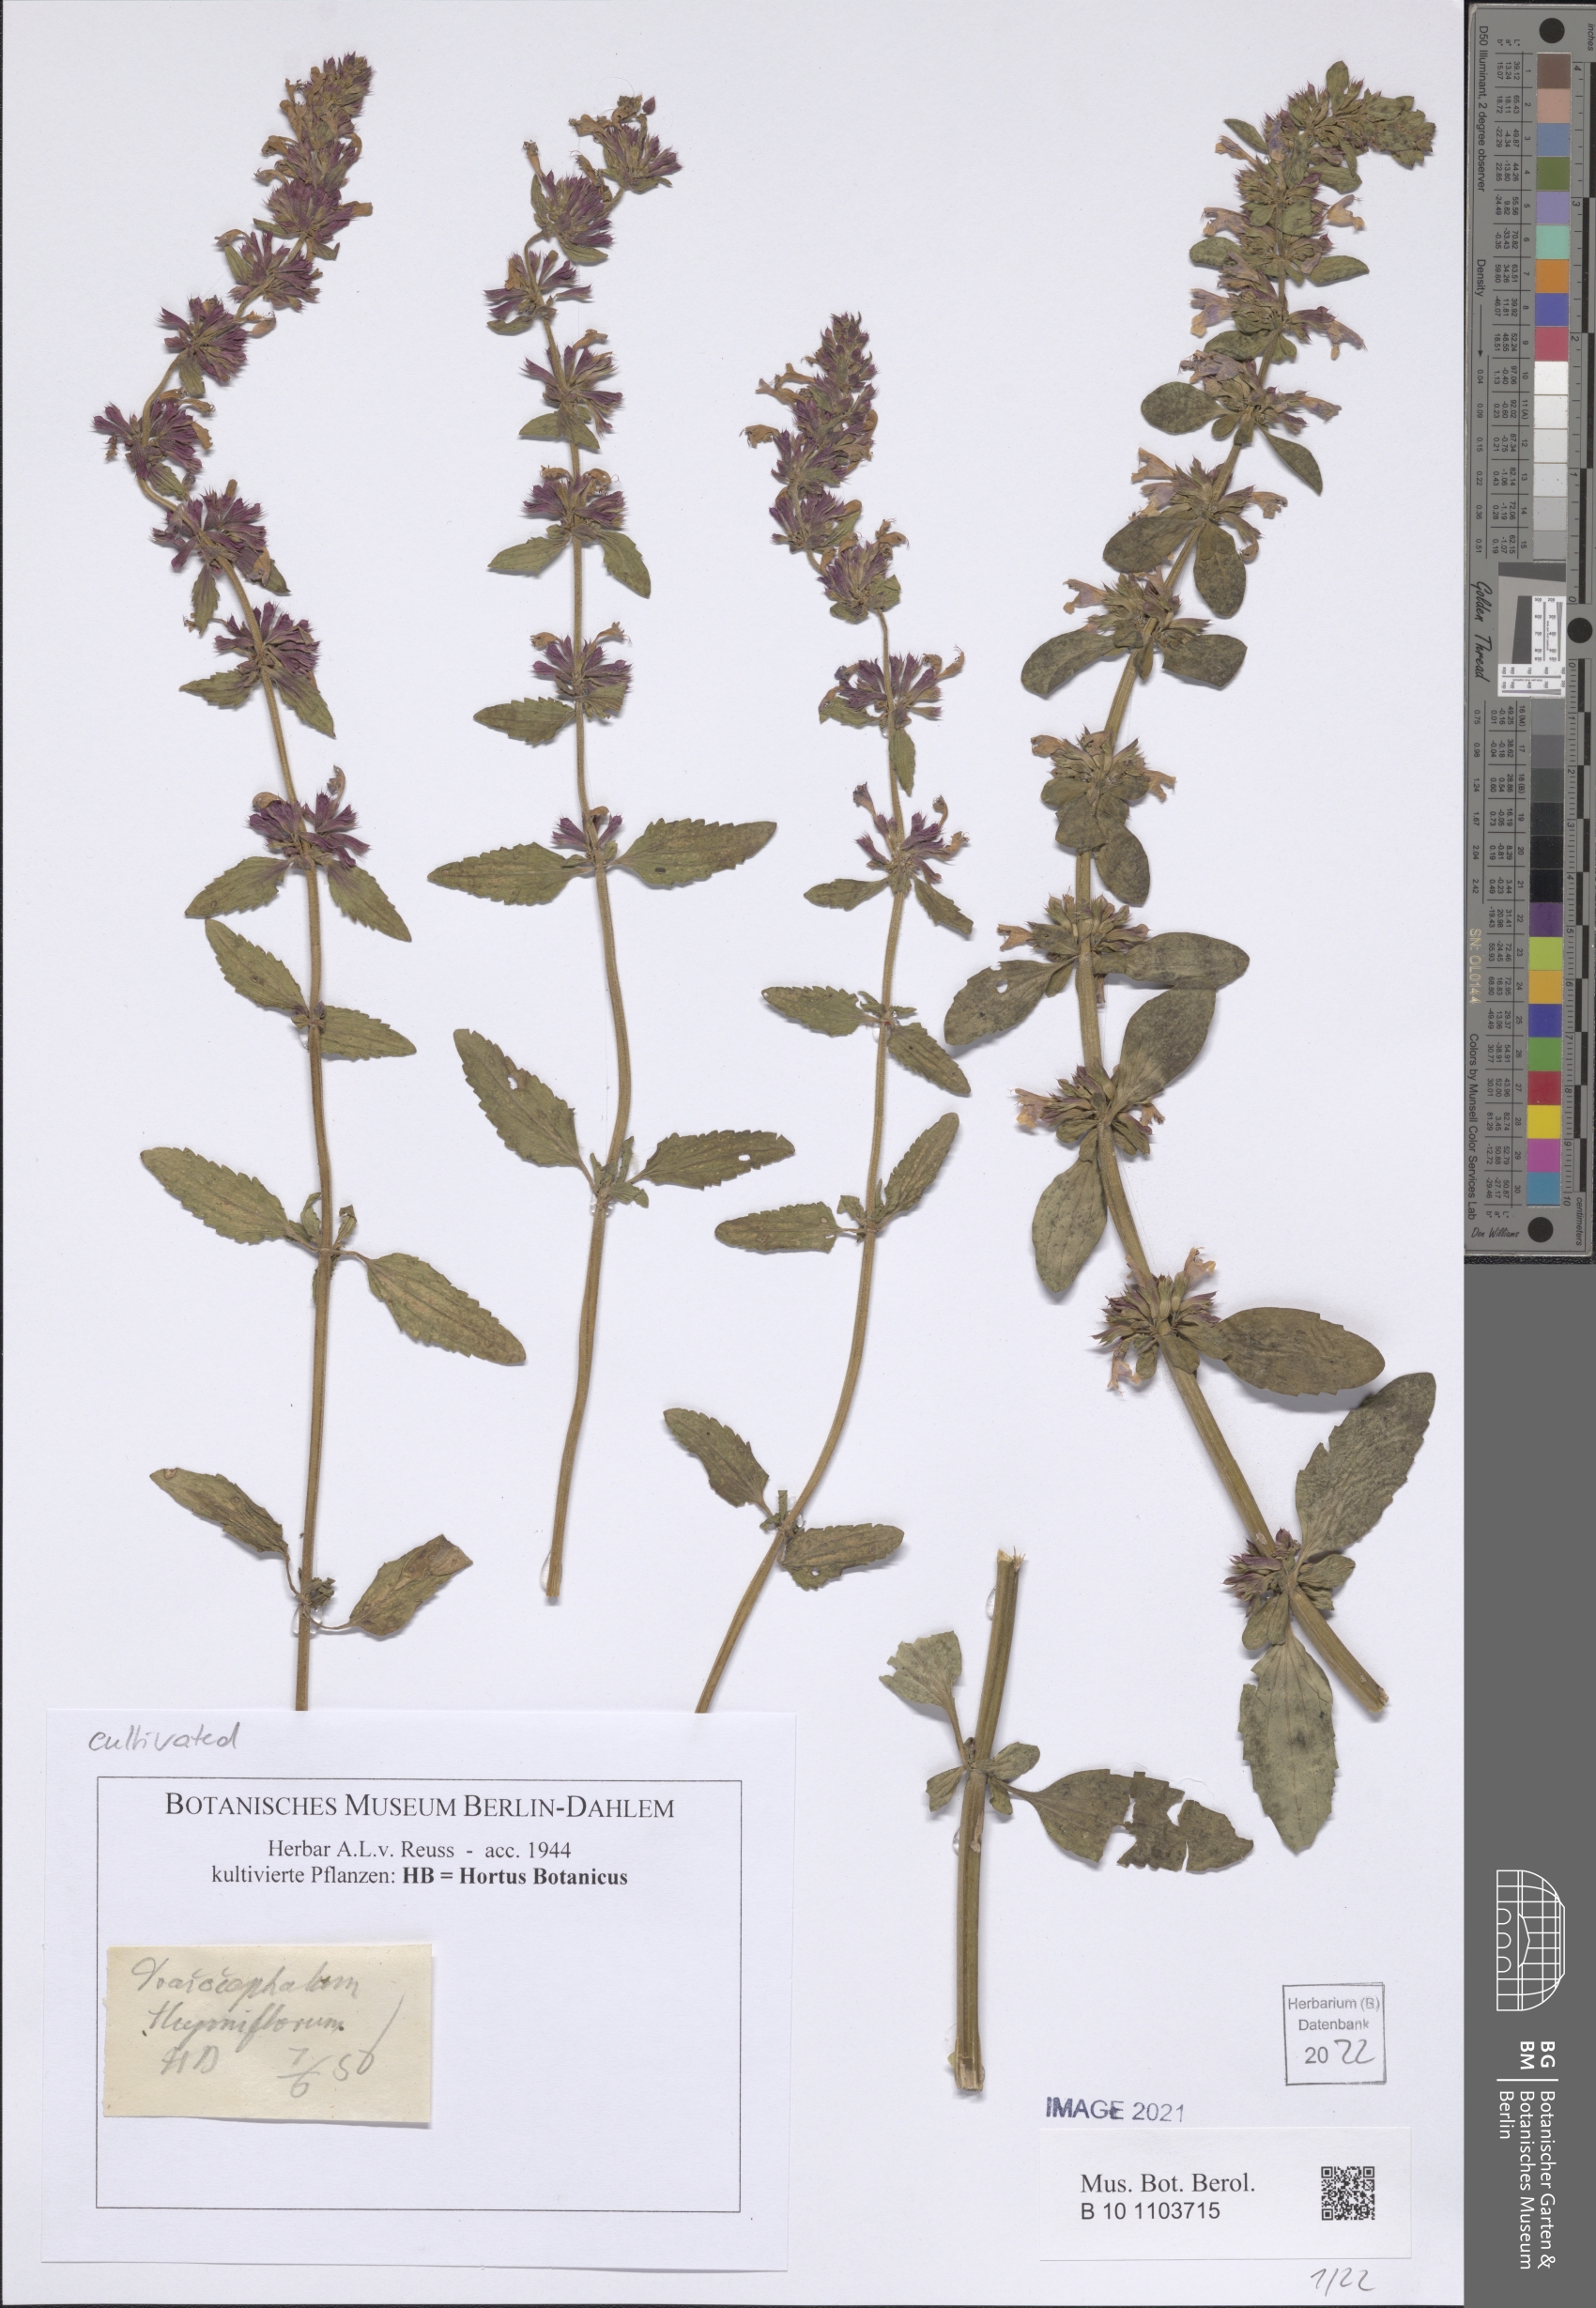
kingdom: Plantae
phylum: Tracheophyta
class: Magnoliopsida
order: Lamiales
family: Lamiaceae
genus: Dracocephalum
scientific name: Dracocephalum thymiflorum
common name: Thymeleaf dragonhead
